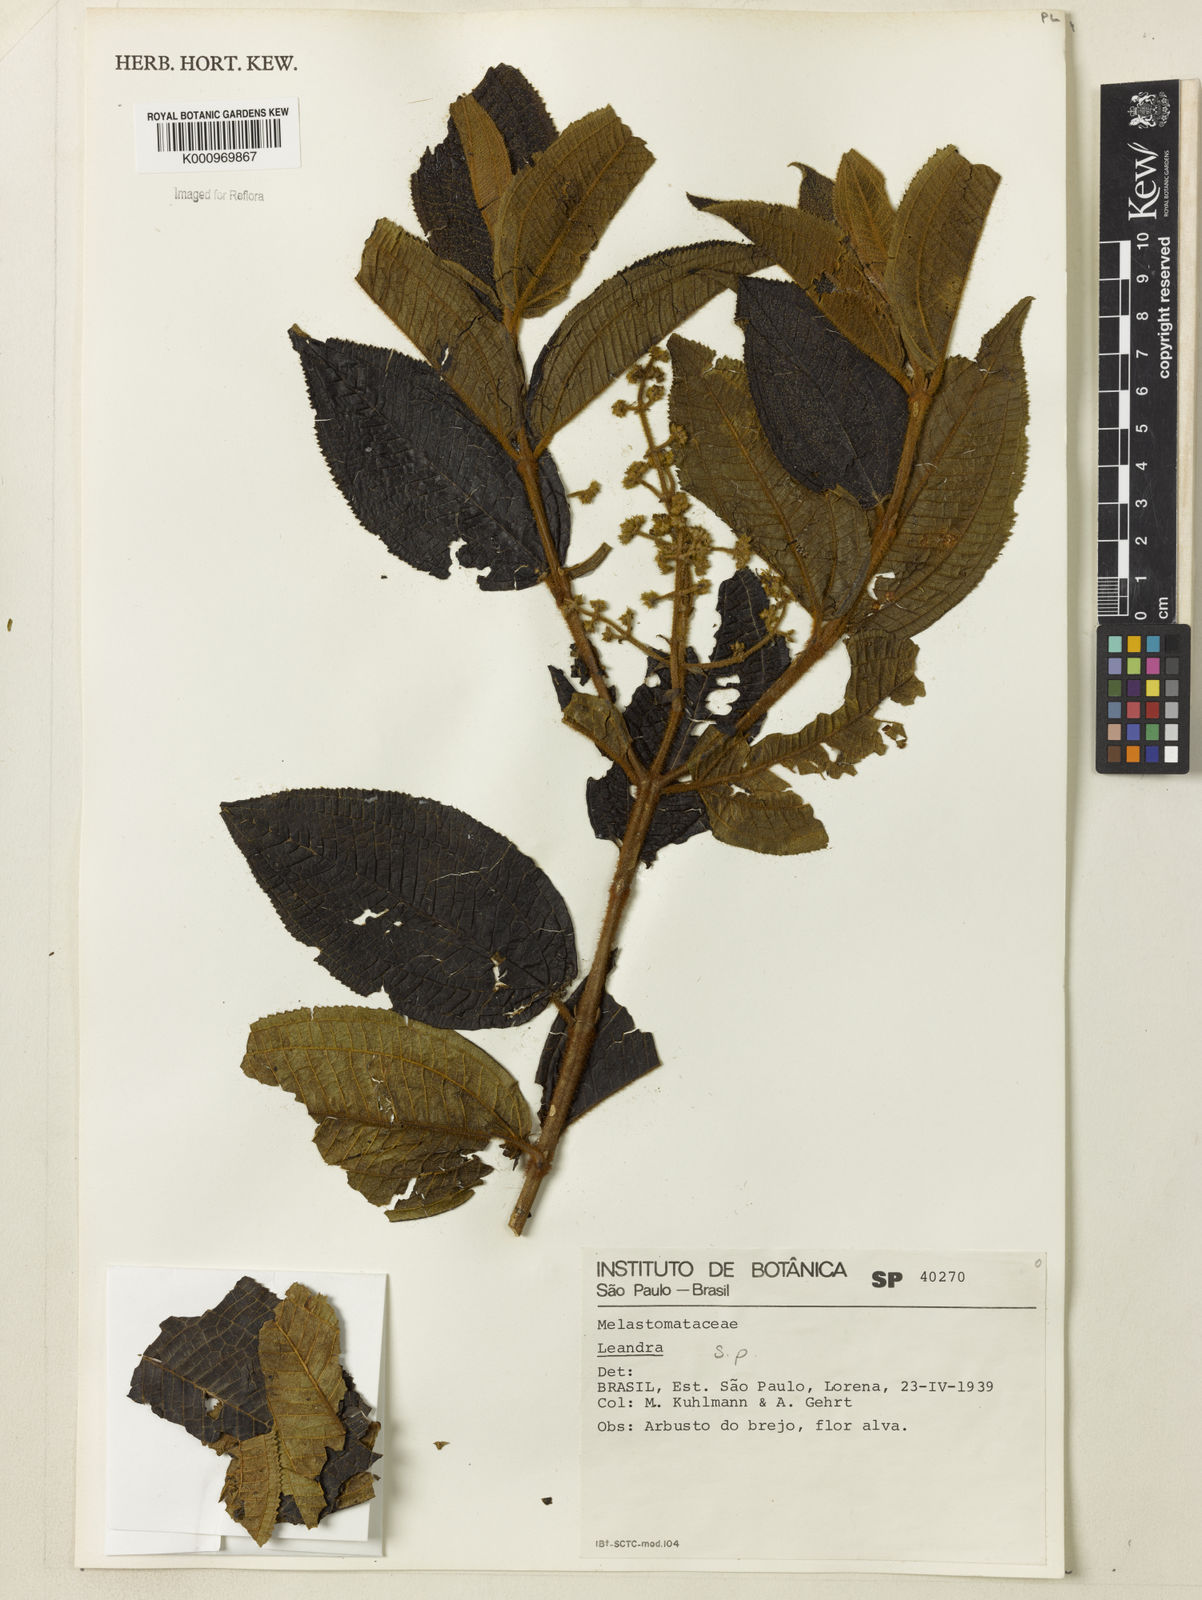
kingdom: Plantae
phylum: Tracheophyta
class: Magnoliopsida
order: Myrtales
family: Melastomataceae
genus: Miconia
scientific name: Miconia
